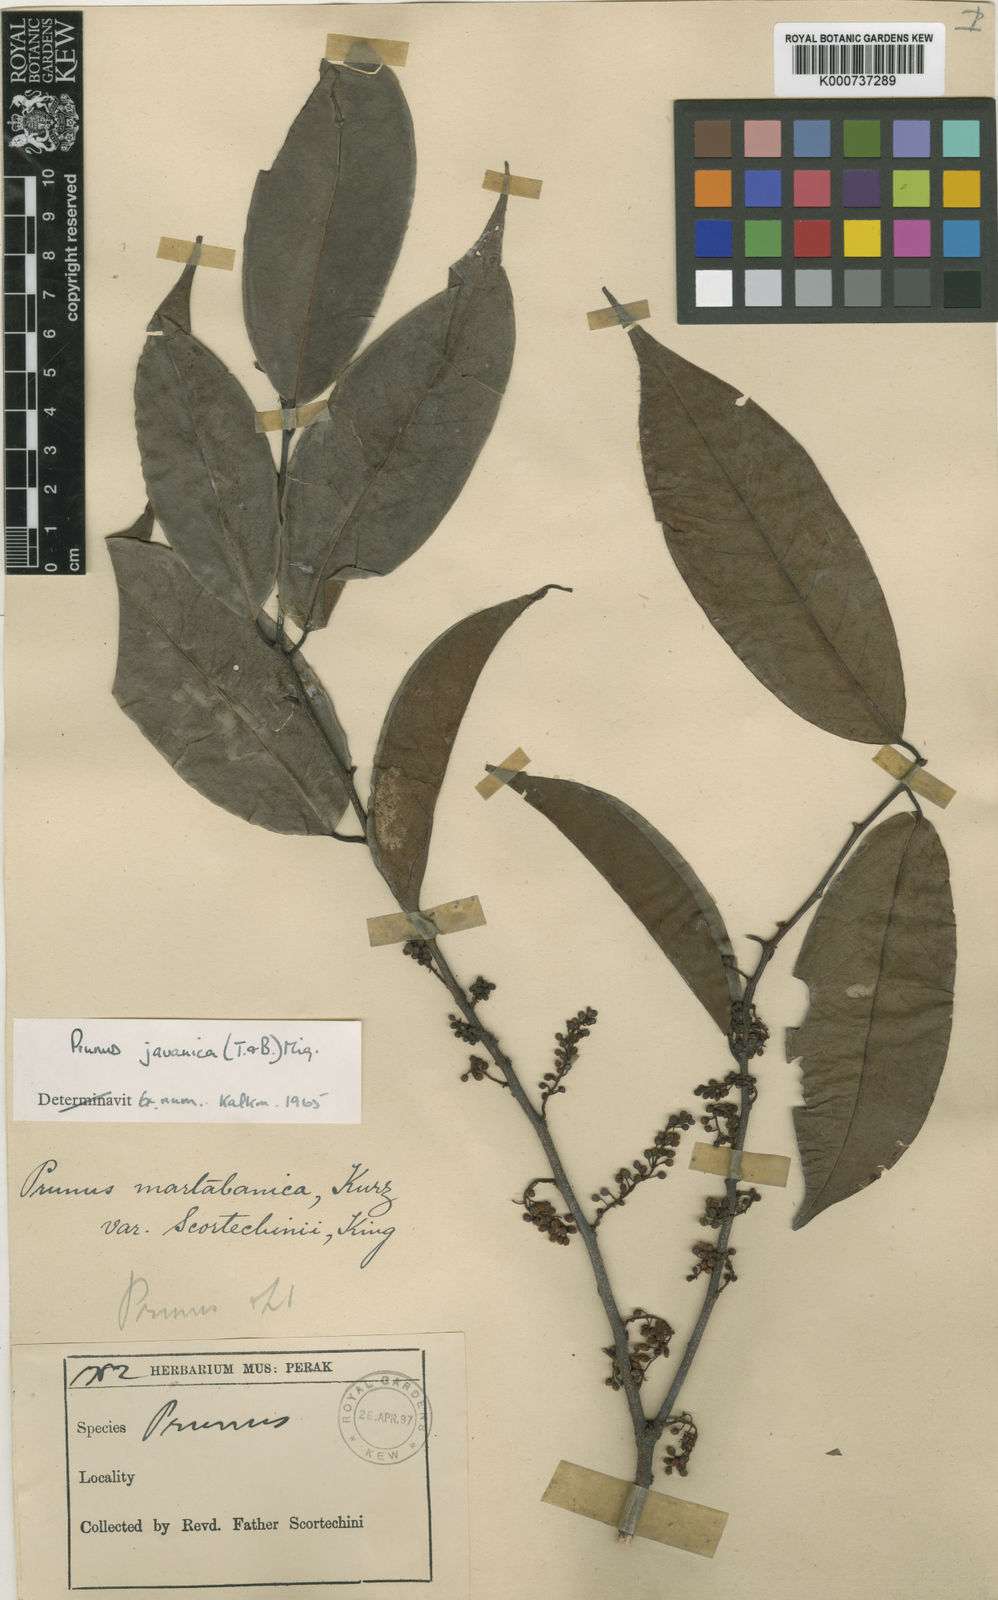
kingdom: Plantae
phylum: Tracheophyta
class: Magnoliopsida
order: Rosales
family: Rosaceae
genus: Prunus
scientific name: Prunus javanica
